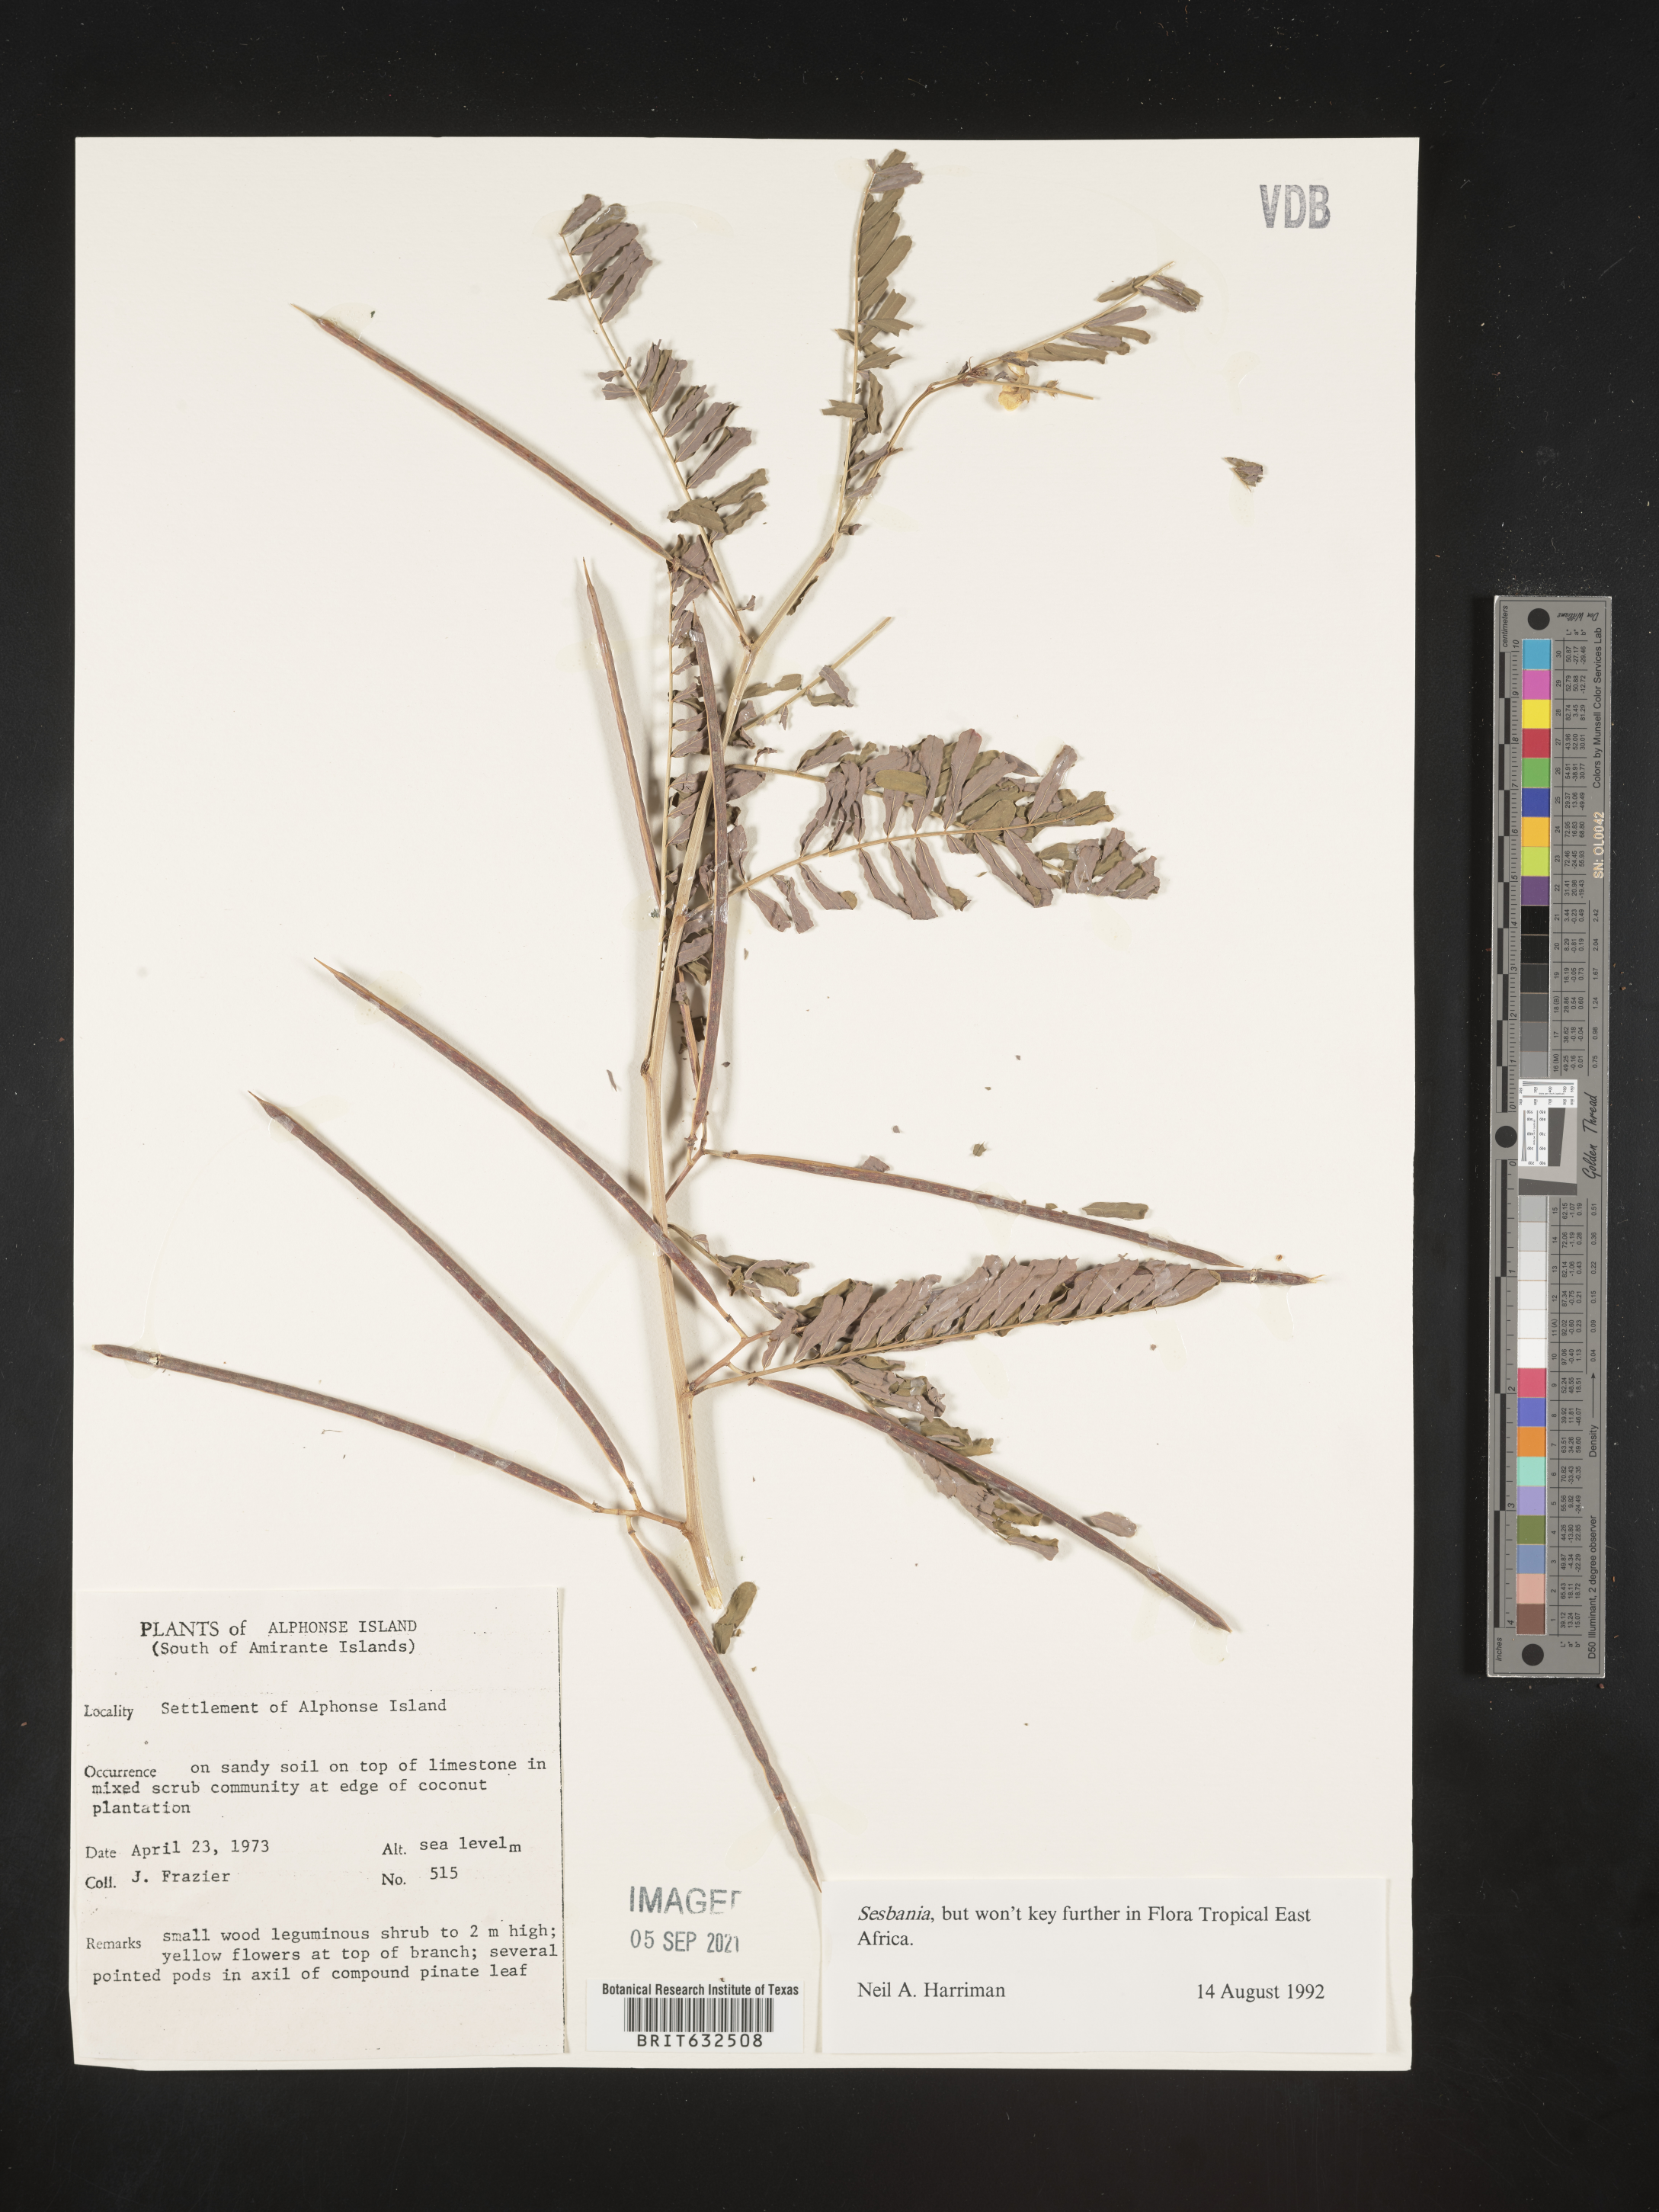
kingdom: Plantae
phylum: Tracheophyta
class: Magnoliopsida
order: Fabales
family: Fabaceae
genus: Sesbania
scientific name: Sesbania
